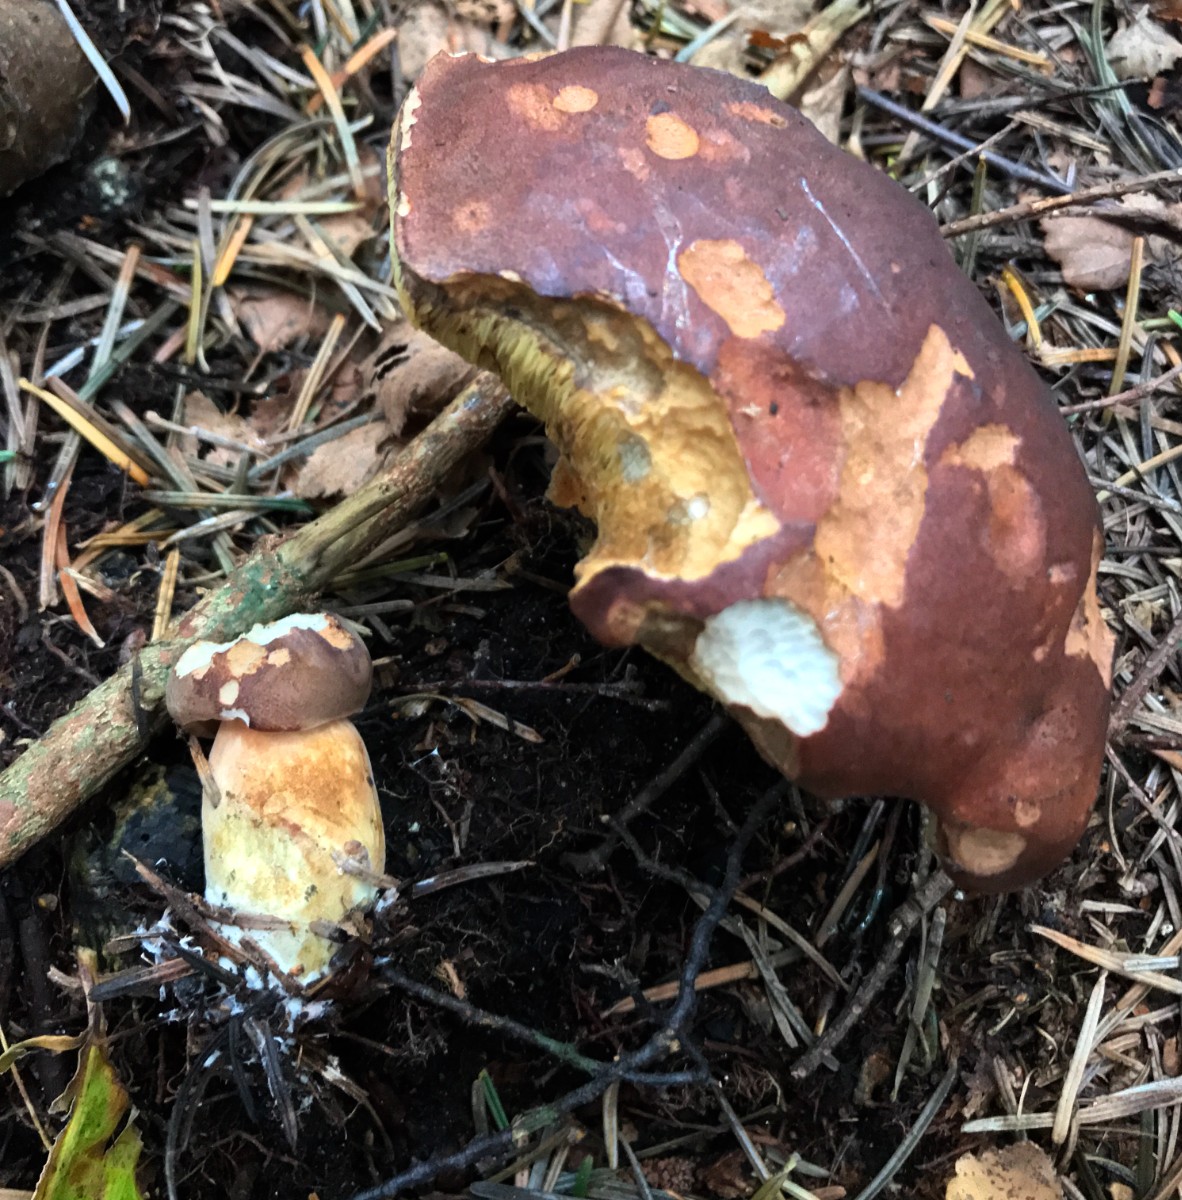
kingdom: Fungi
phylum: Basidiomycota
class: Agaricomycetes
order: Boletales
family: Boletaceae
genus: Imleria
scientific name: Imleria badia
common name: brunstokket rørhat
